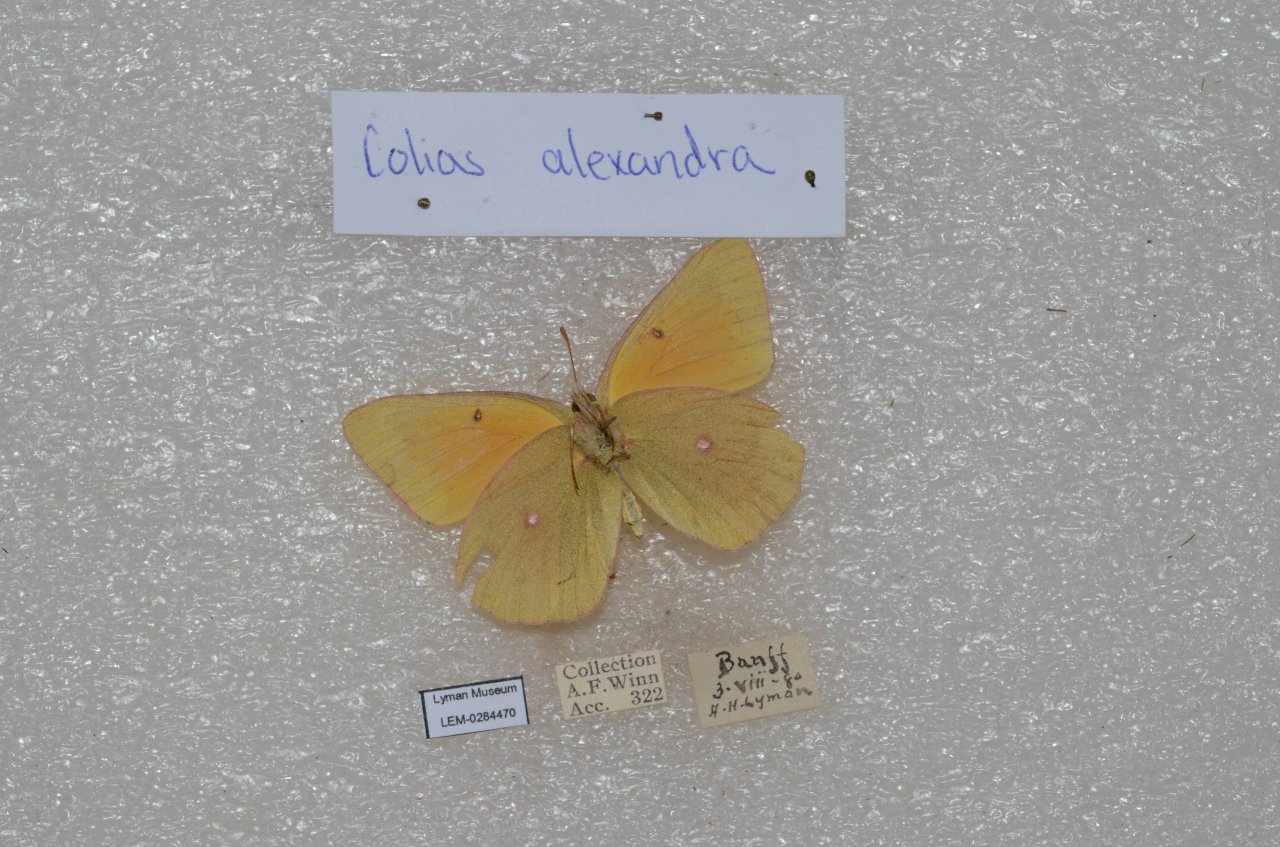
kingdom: Animalia
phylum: Arthropoda
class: Insecta
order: Lepidoptera
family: Pieridae
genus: Colias
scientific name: Colias christina
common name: Christina Sulphur
